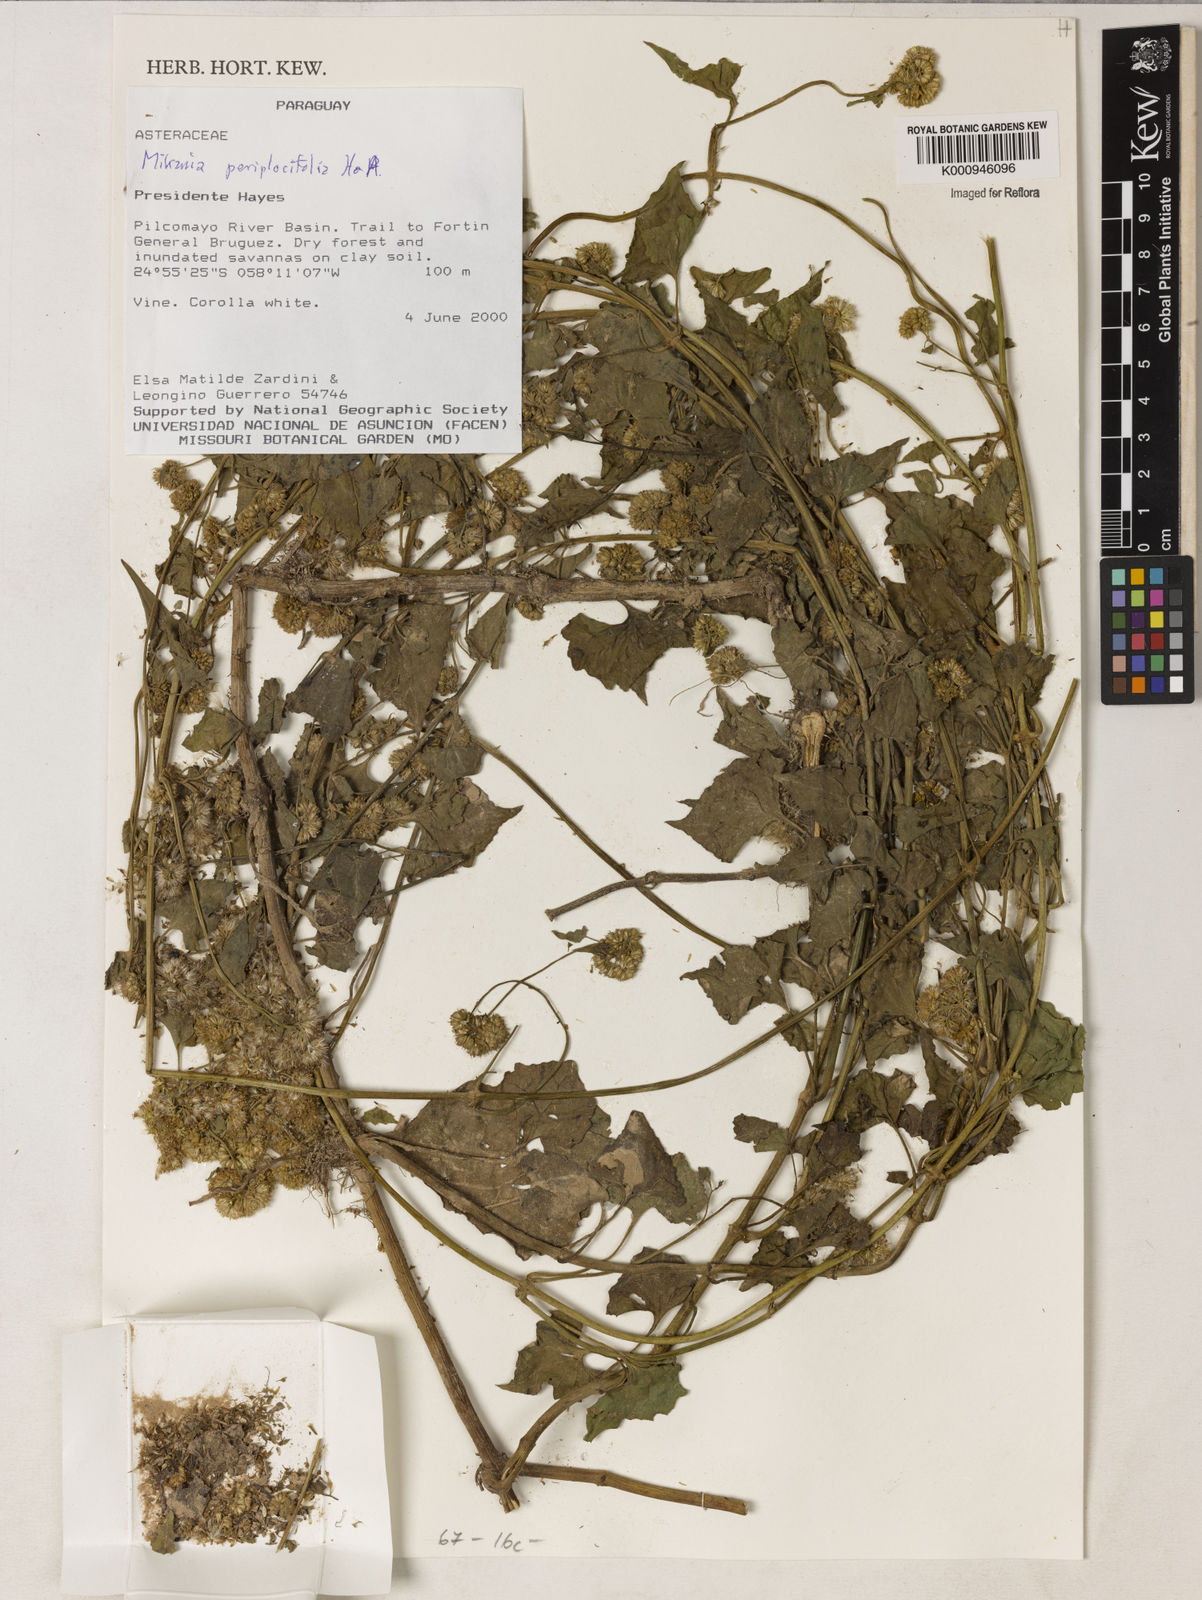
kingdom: Plantae
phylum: Tracheophyta
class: Magnoliopsida
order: Asterales
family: Asteraceae
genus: Mikania
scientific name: Mikania periplocifolia
